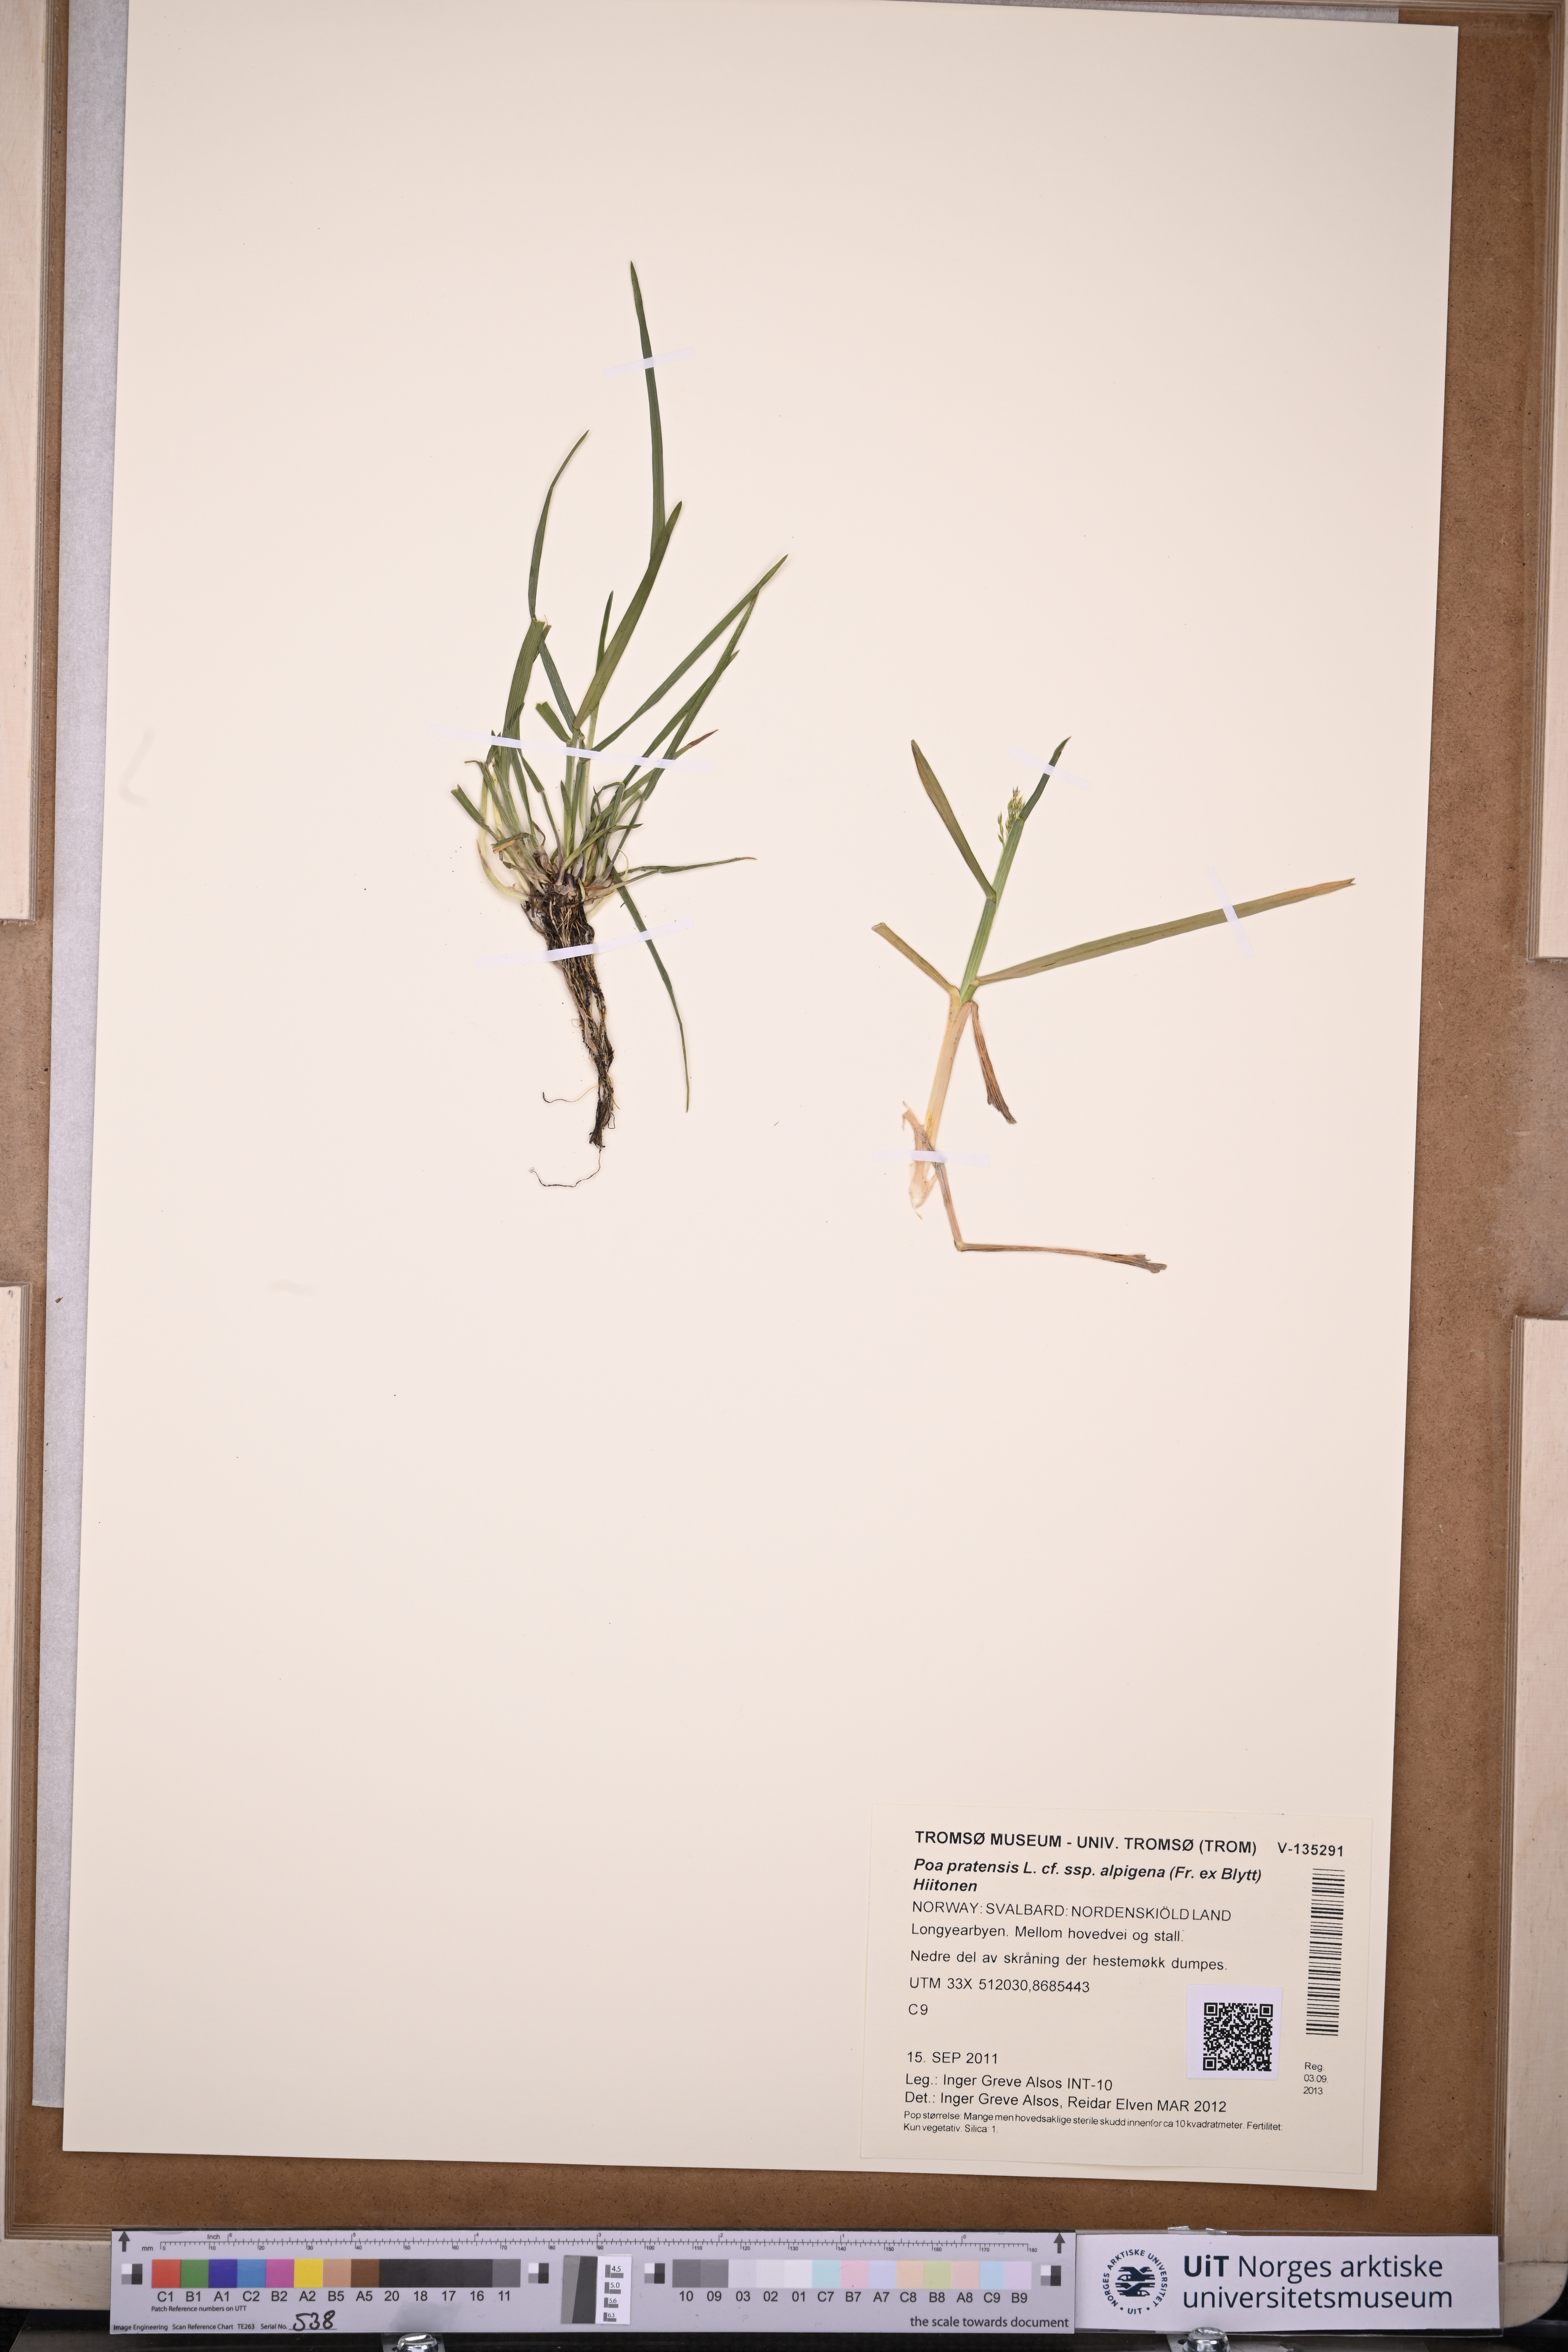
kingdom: Plantae
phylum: Tracheophyta
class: Liliopsida
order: Poales
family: Poaceae
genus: Poa
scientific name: Poa alpigena
